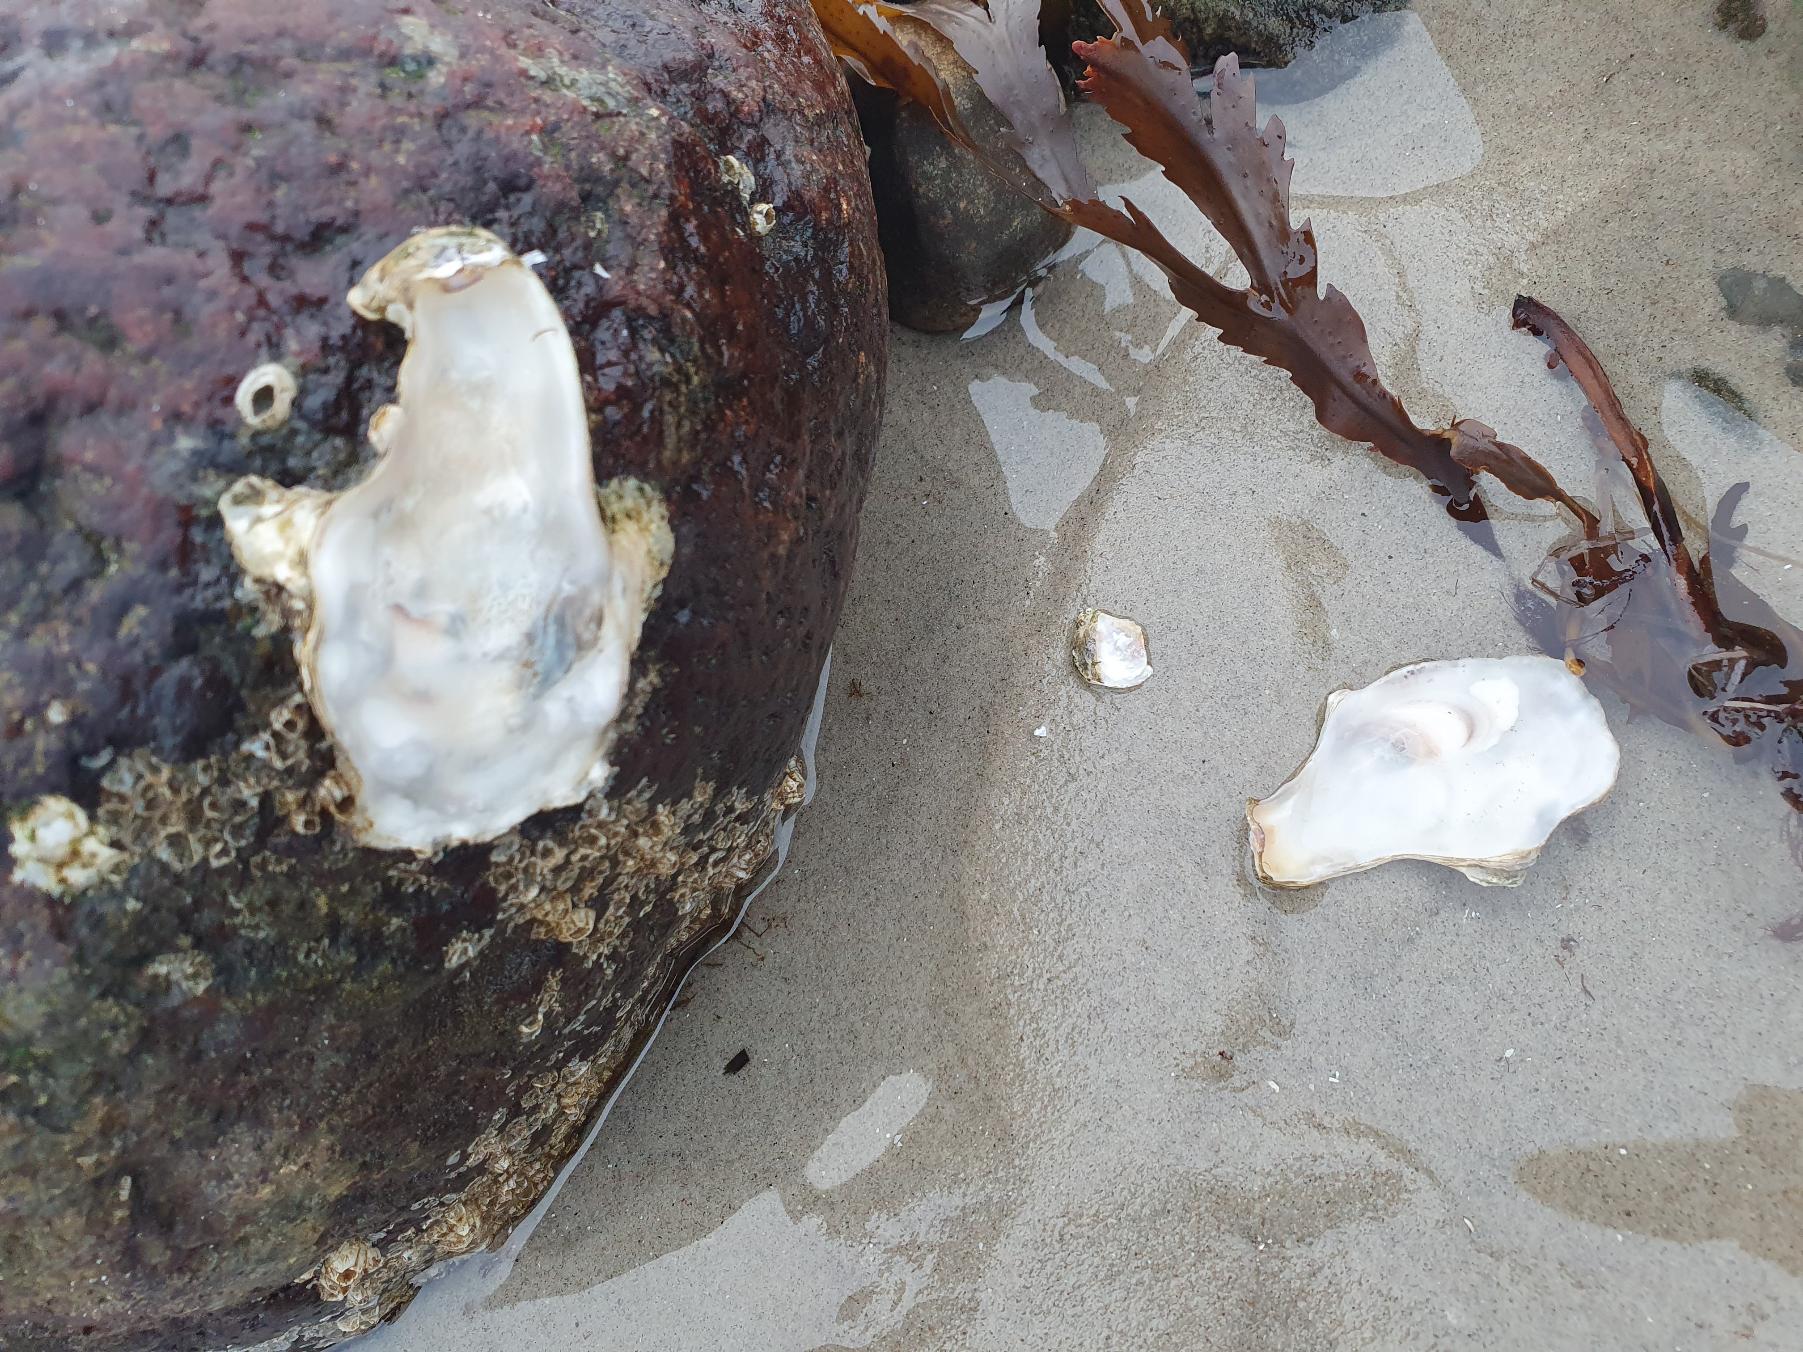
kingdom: Animalia
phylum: Mollusca
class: Bivalvia
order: Ostreida
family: Ostreidae
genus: Magallana
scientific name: Magallana gigas
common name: Stillehavsøsters
